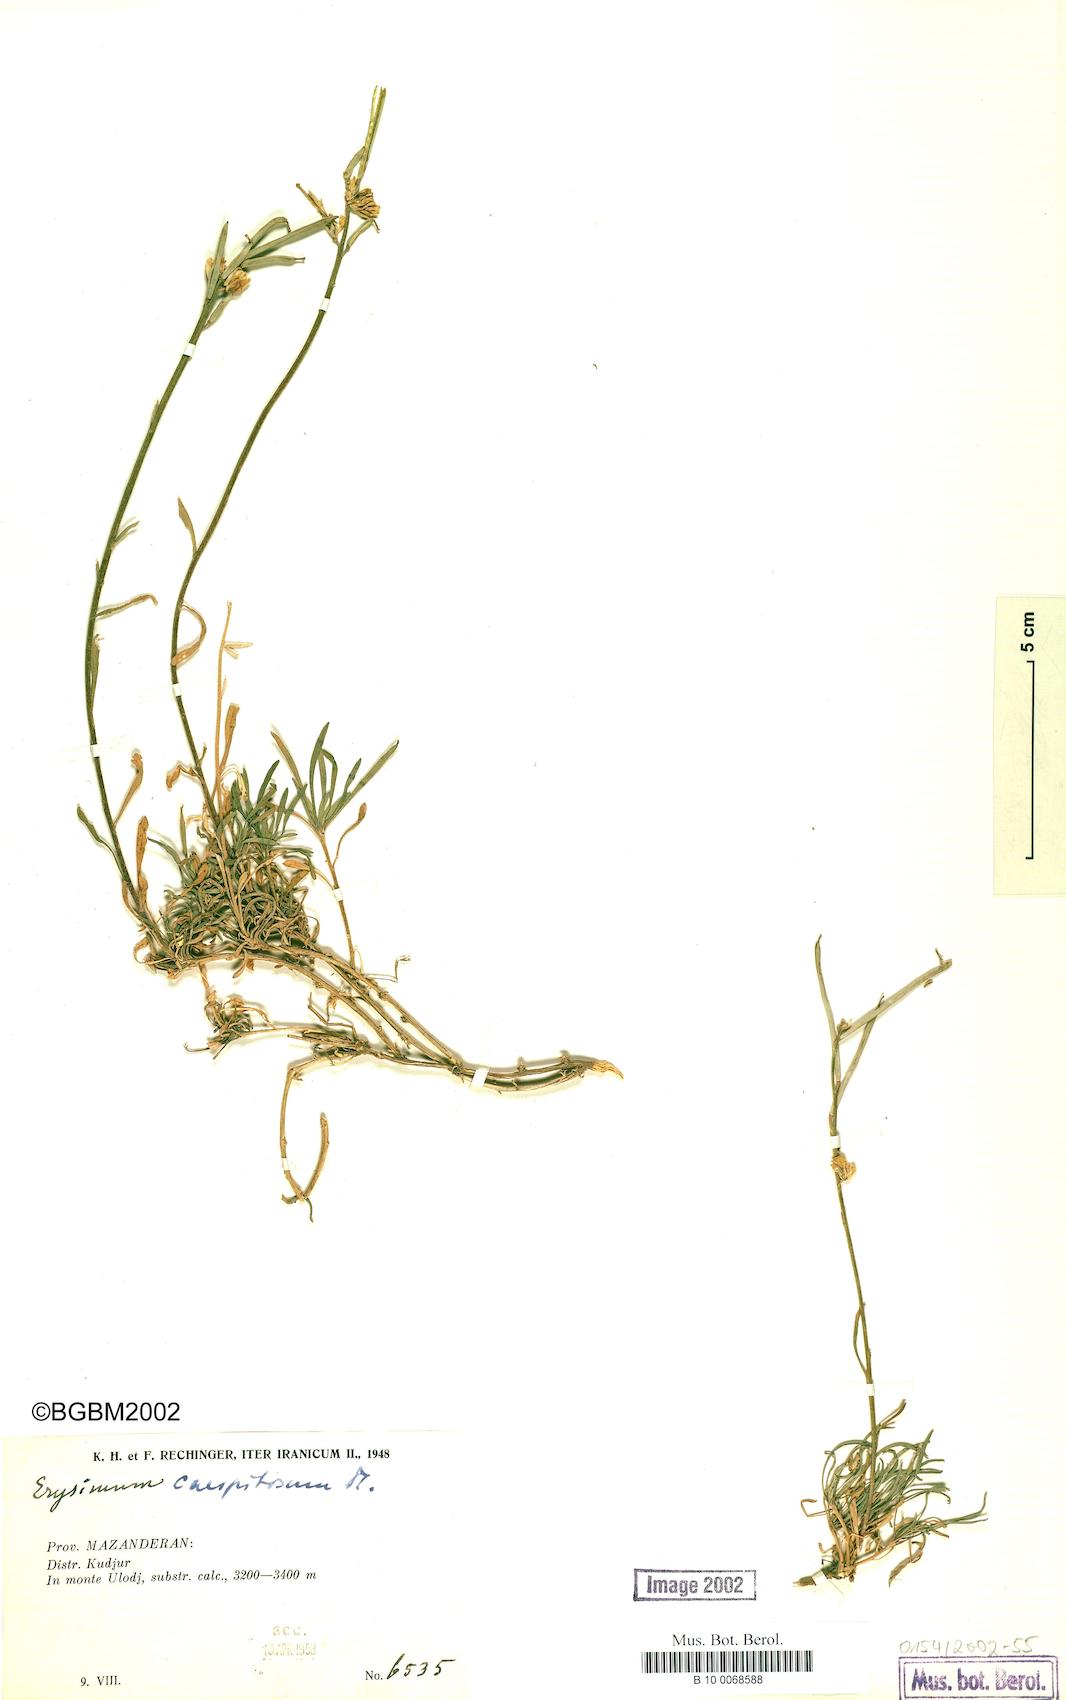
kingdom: Plantae
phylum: Tracheophyta
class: Magnoliopsida
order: Brassicales
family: Brassicaceae
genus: Erysimum
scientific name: Erysimum caespitosum
